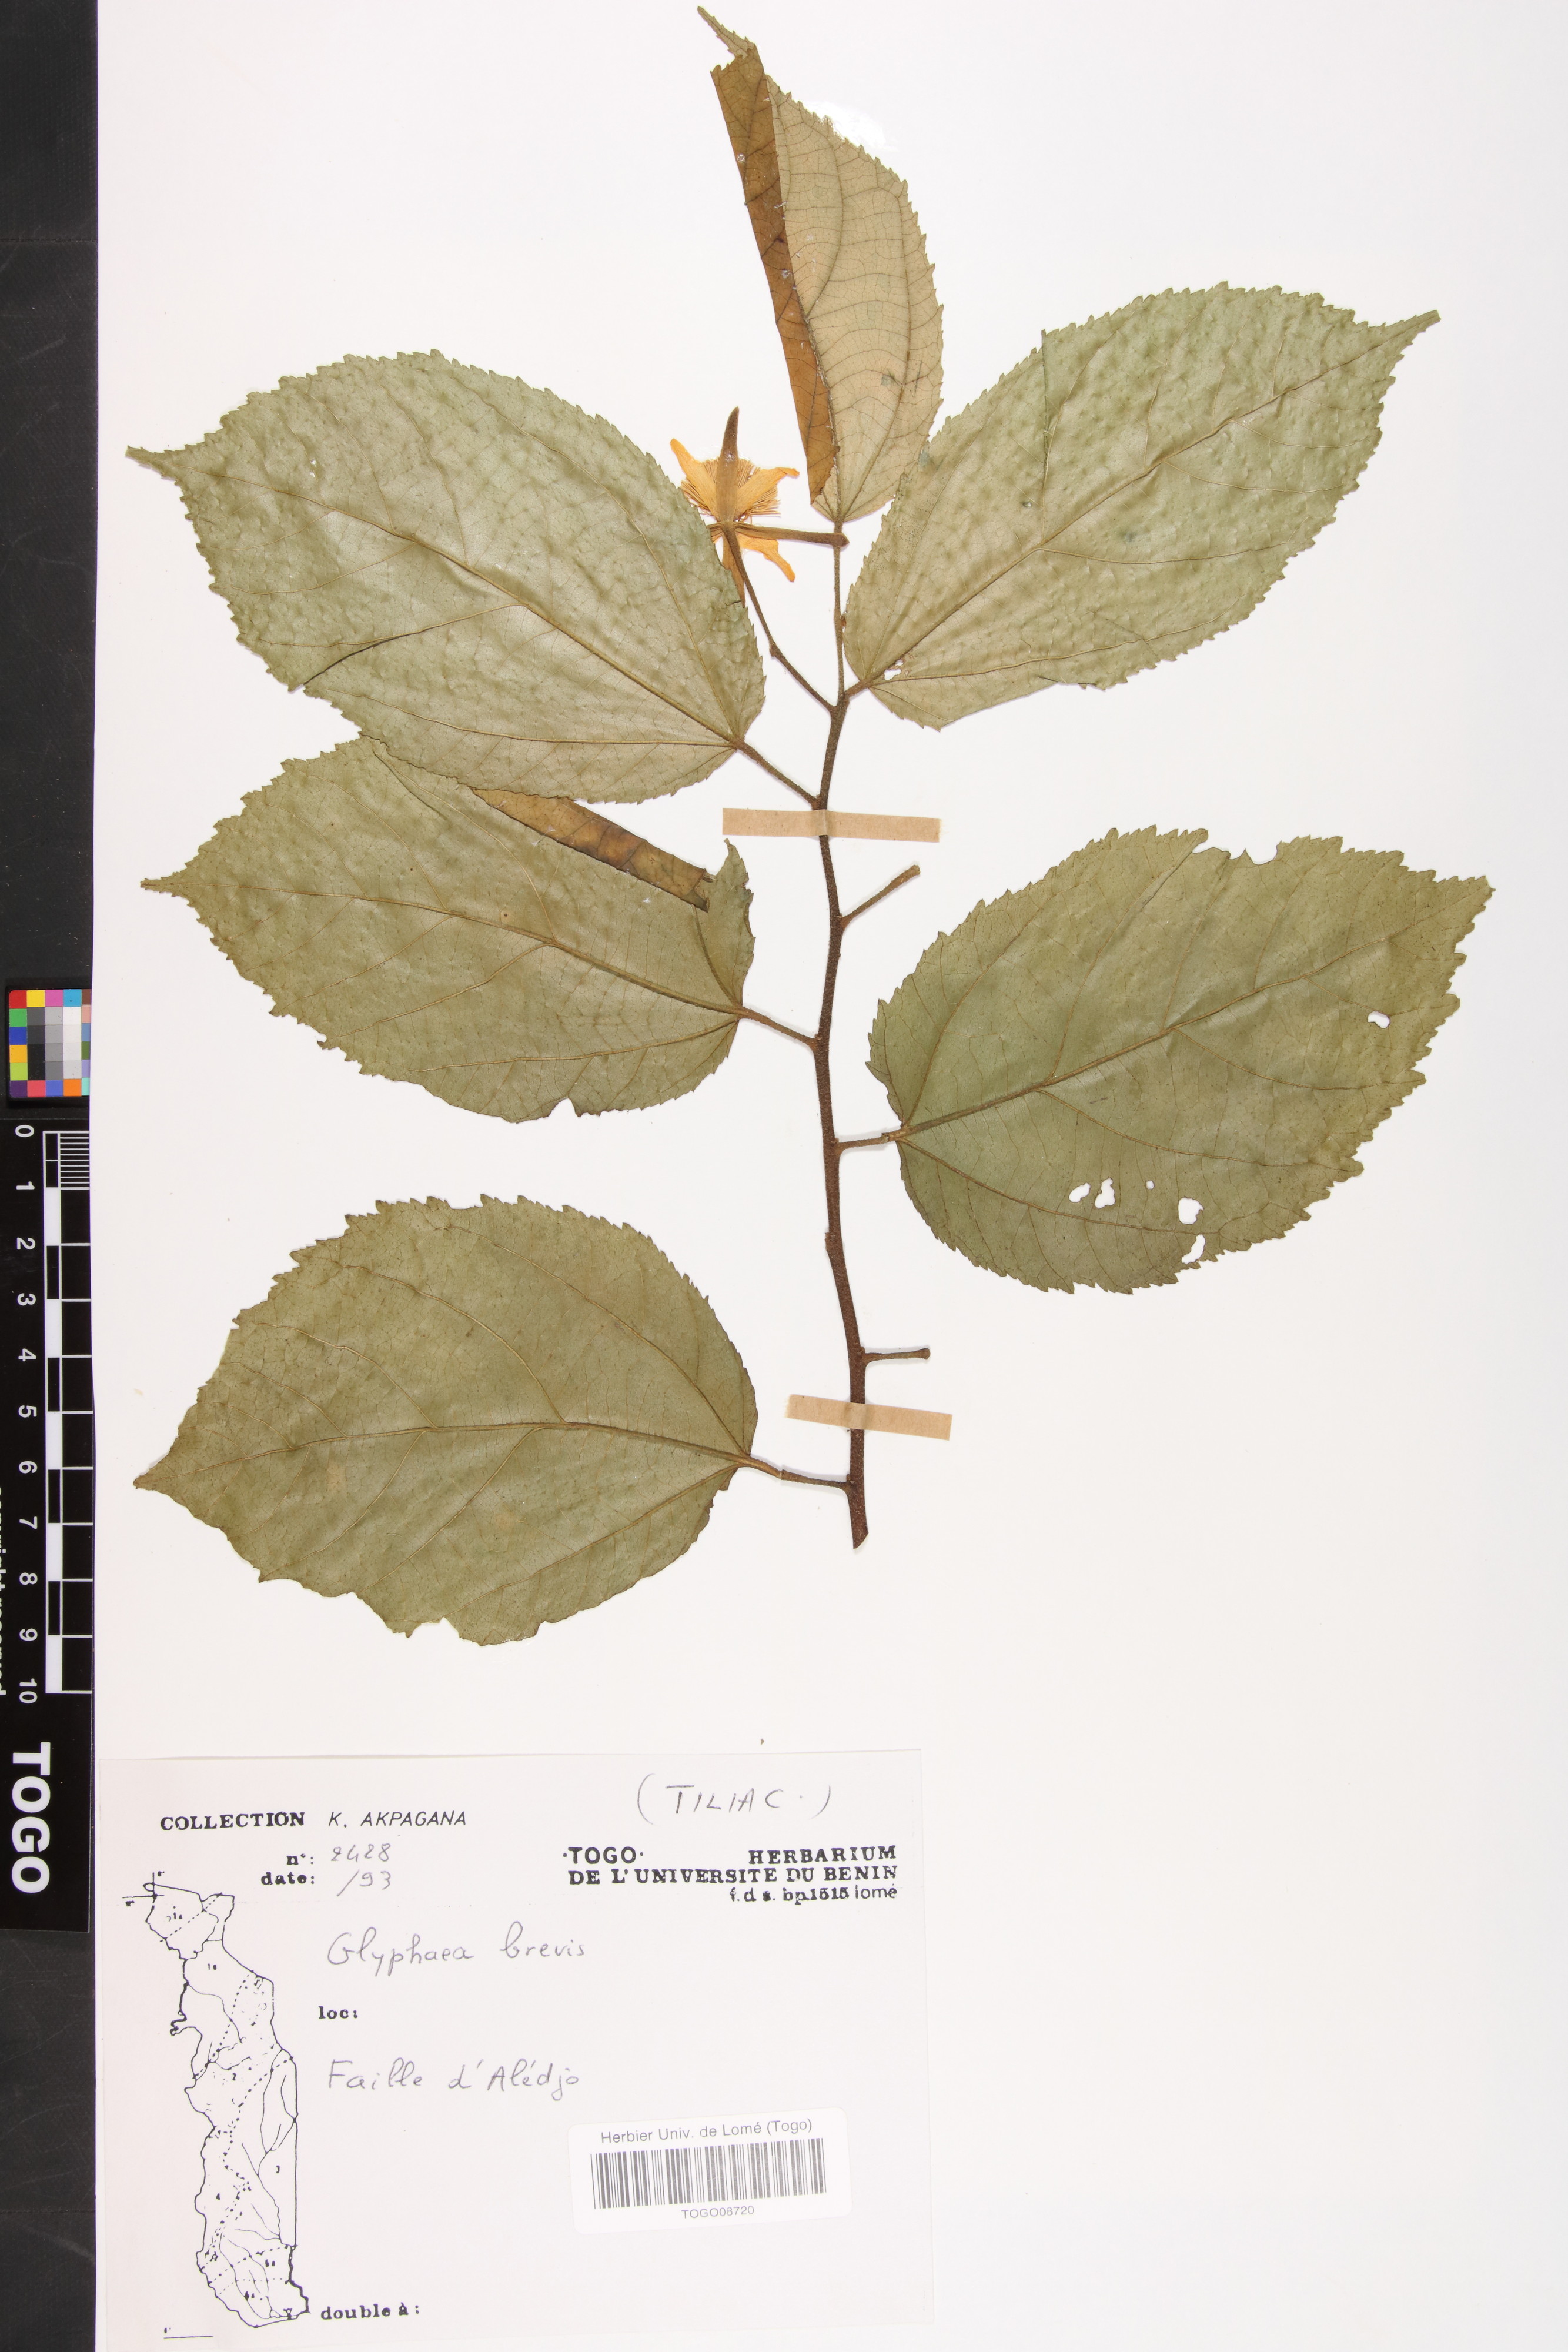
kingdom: Plantae
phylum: Tracheophyta
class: Magnoliopsida
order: Malvales
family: Malvaceae
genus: Glyphaea
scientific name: Glyphaea brevis
